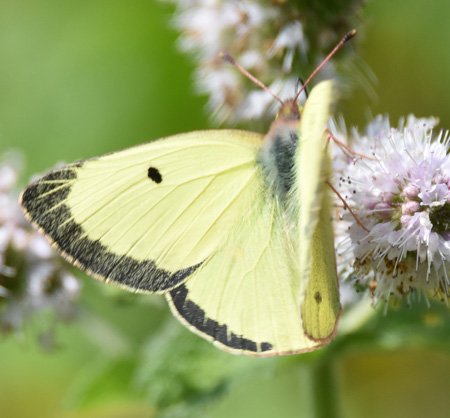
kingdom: Animalia
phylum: Arthropoda
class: Insecta
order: Lepidoptera
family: Pieridae
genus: Colias
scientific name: Colias philodice
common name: Clouded Sulphur
